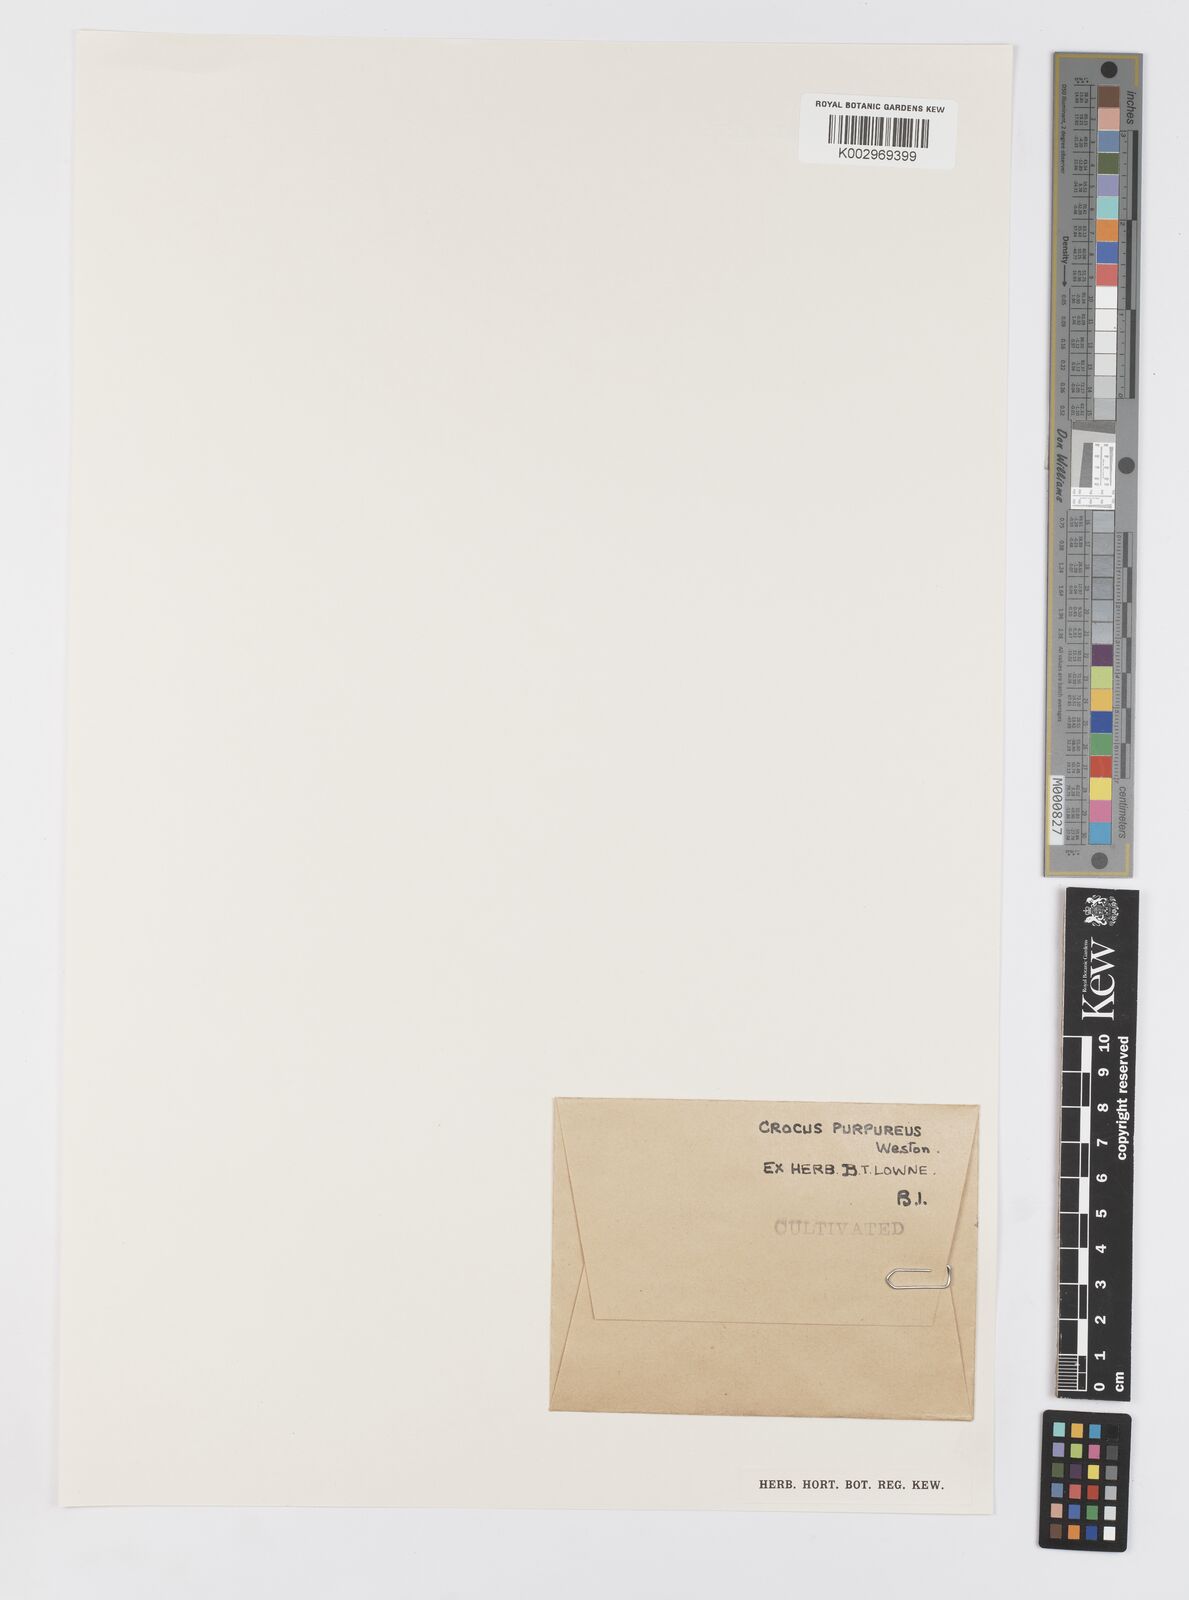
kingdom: Plantae
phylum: Tracheophyta
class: Liliopsida
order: Asparagales
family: Iridaceae
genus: Crocus
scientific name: Crocus vernus
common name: Spring crocus
